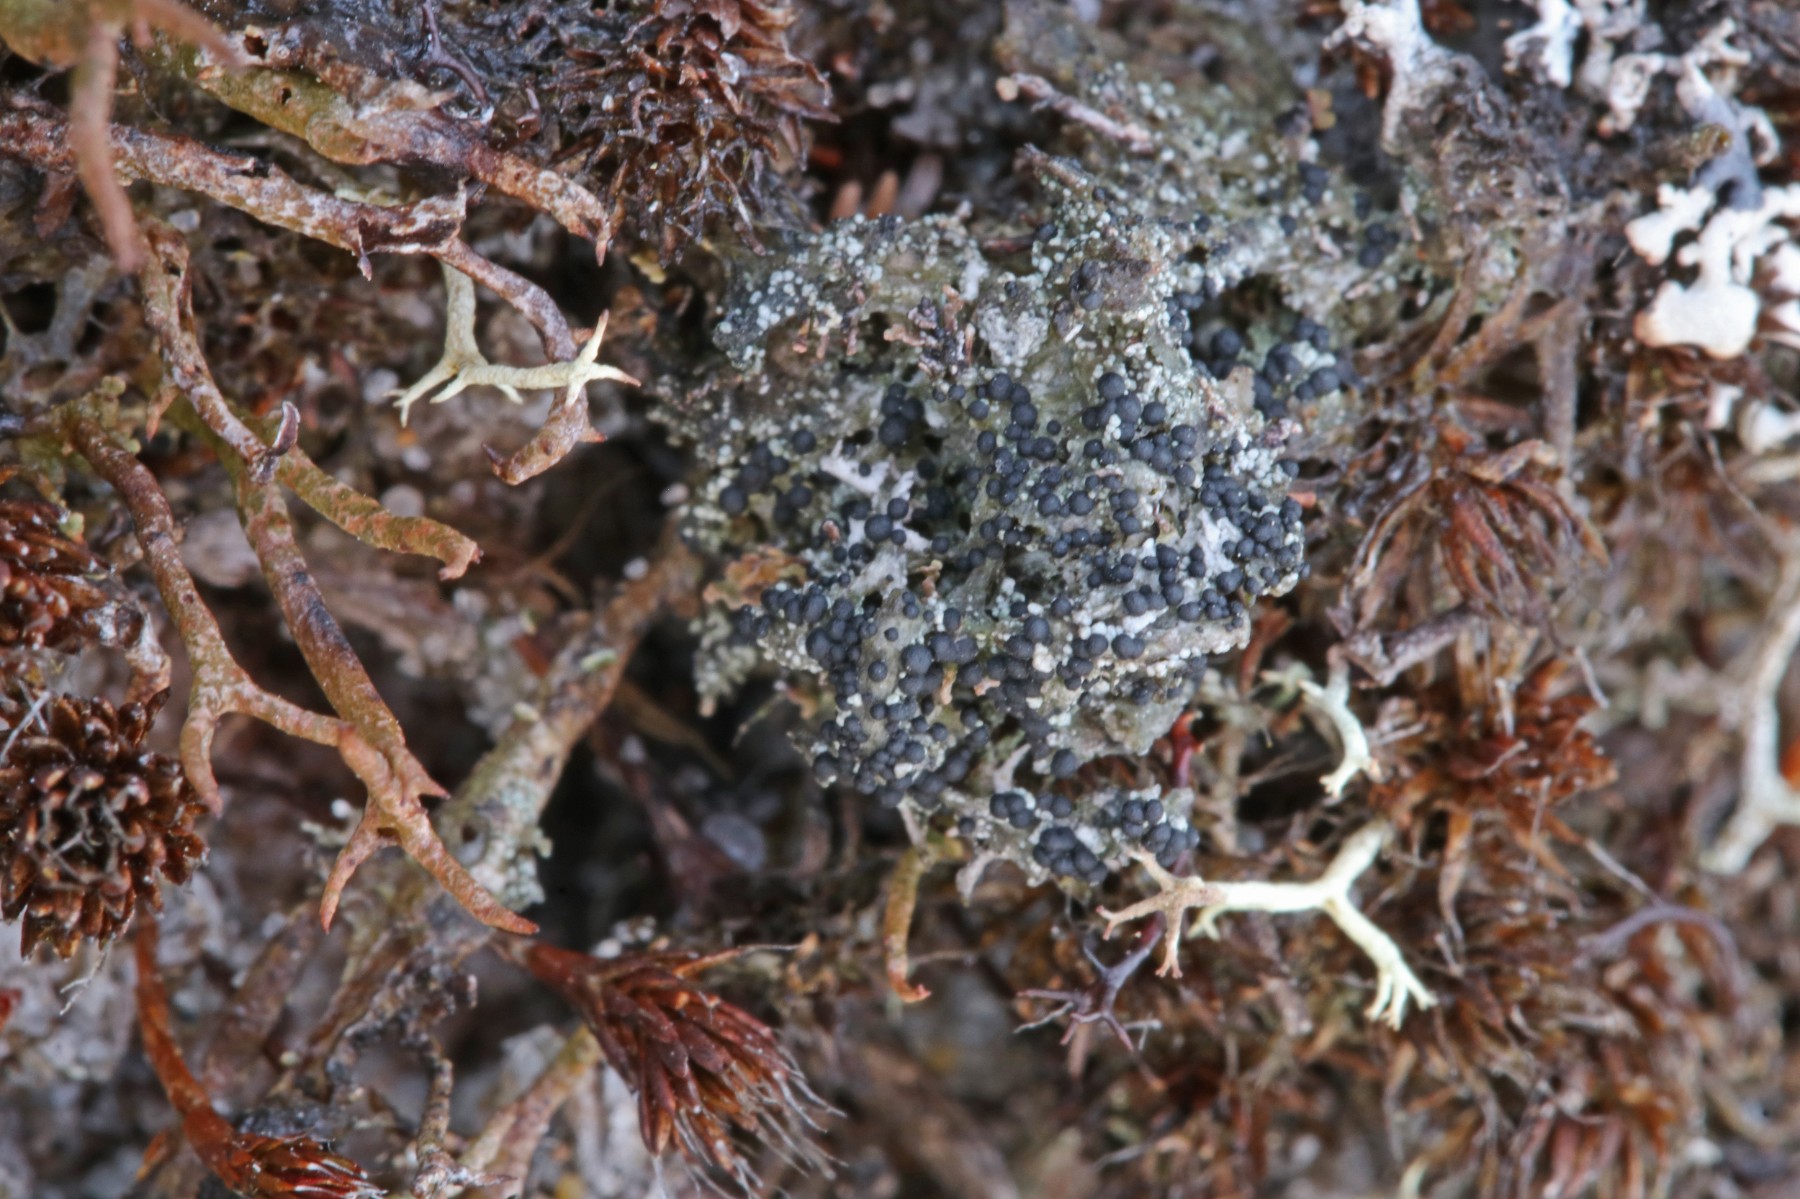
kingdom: Fungi
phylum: Ascomycota
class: Lecanoromycetes
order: Lecanorales
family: Byssolomataceae
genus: Micarea
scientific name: Micarea lignaria
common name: tørve-knaplav
